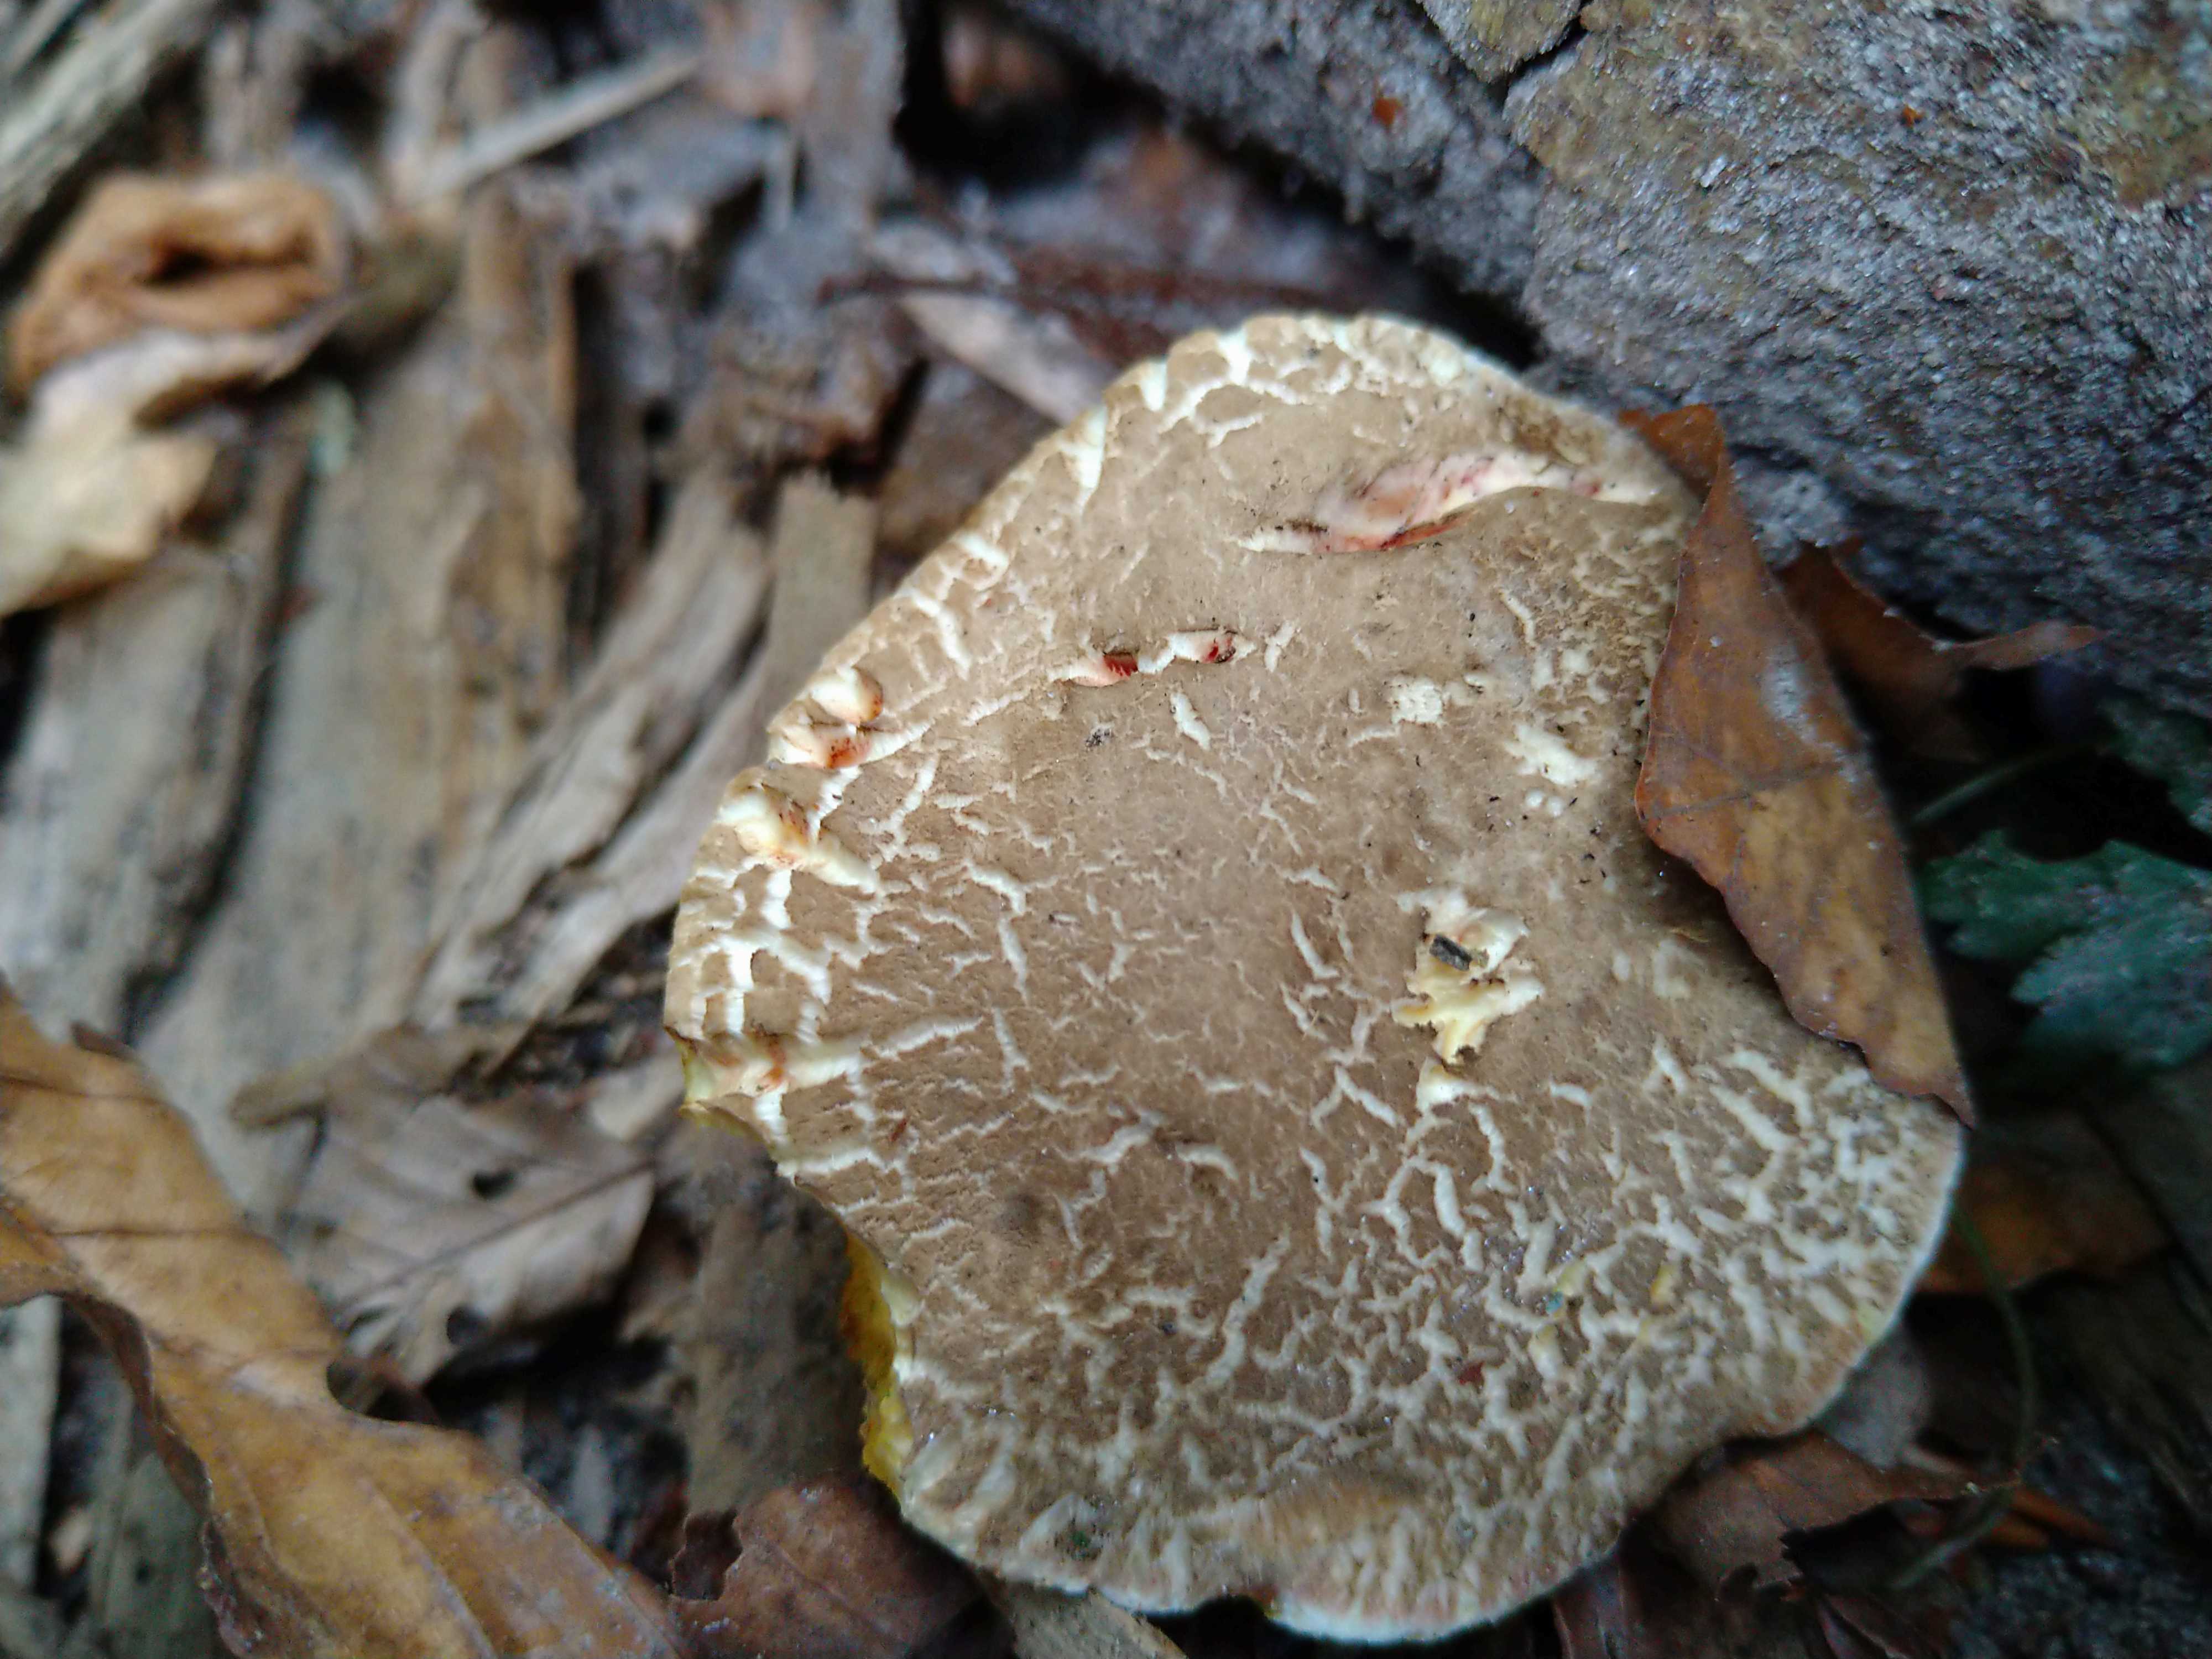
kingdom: Fungi
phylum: Basidiomycota
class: Agaricomycetes
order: Boletales
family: Boletaceae
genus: Xerocomellus
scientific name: Xerocomellus
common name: dværgrørhat
